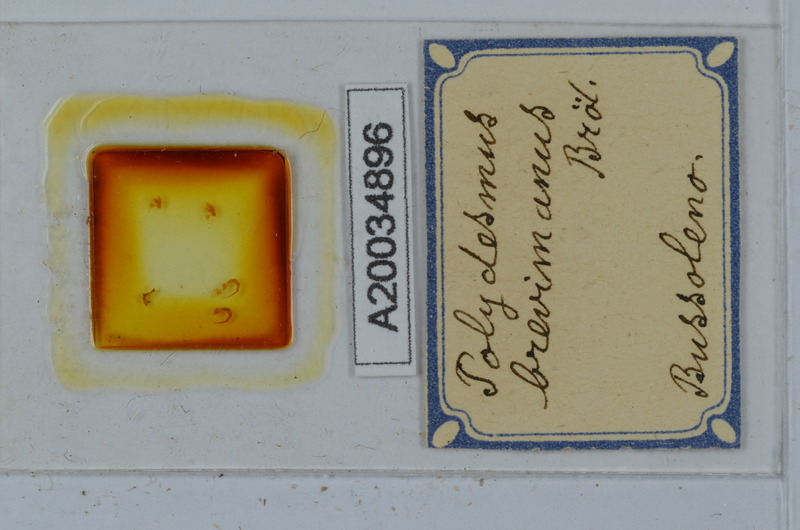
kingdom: Animalia
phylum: Arthropoda
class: Diplopoda
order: Polydesmida
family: Polydesmidae
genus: Polydesmus
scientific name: Polydesmus brevimanus
